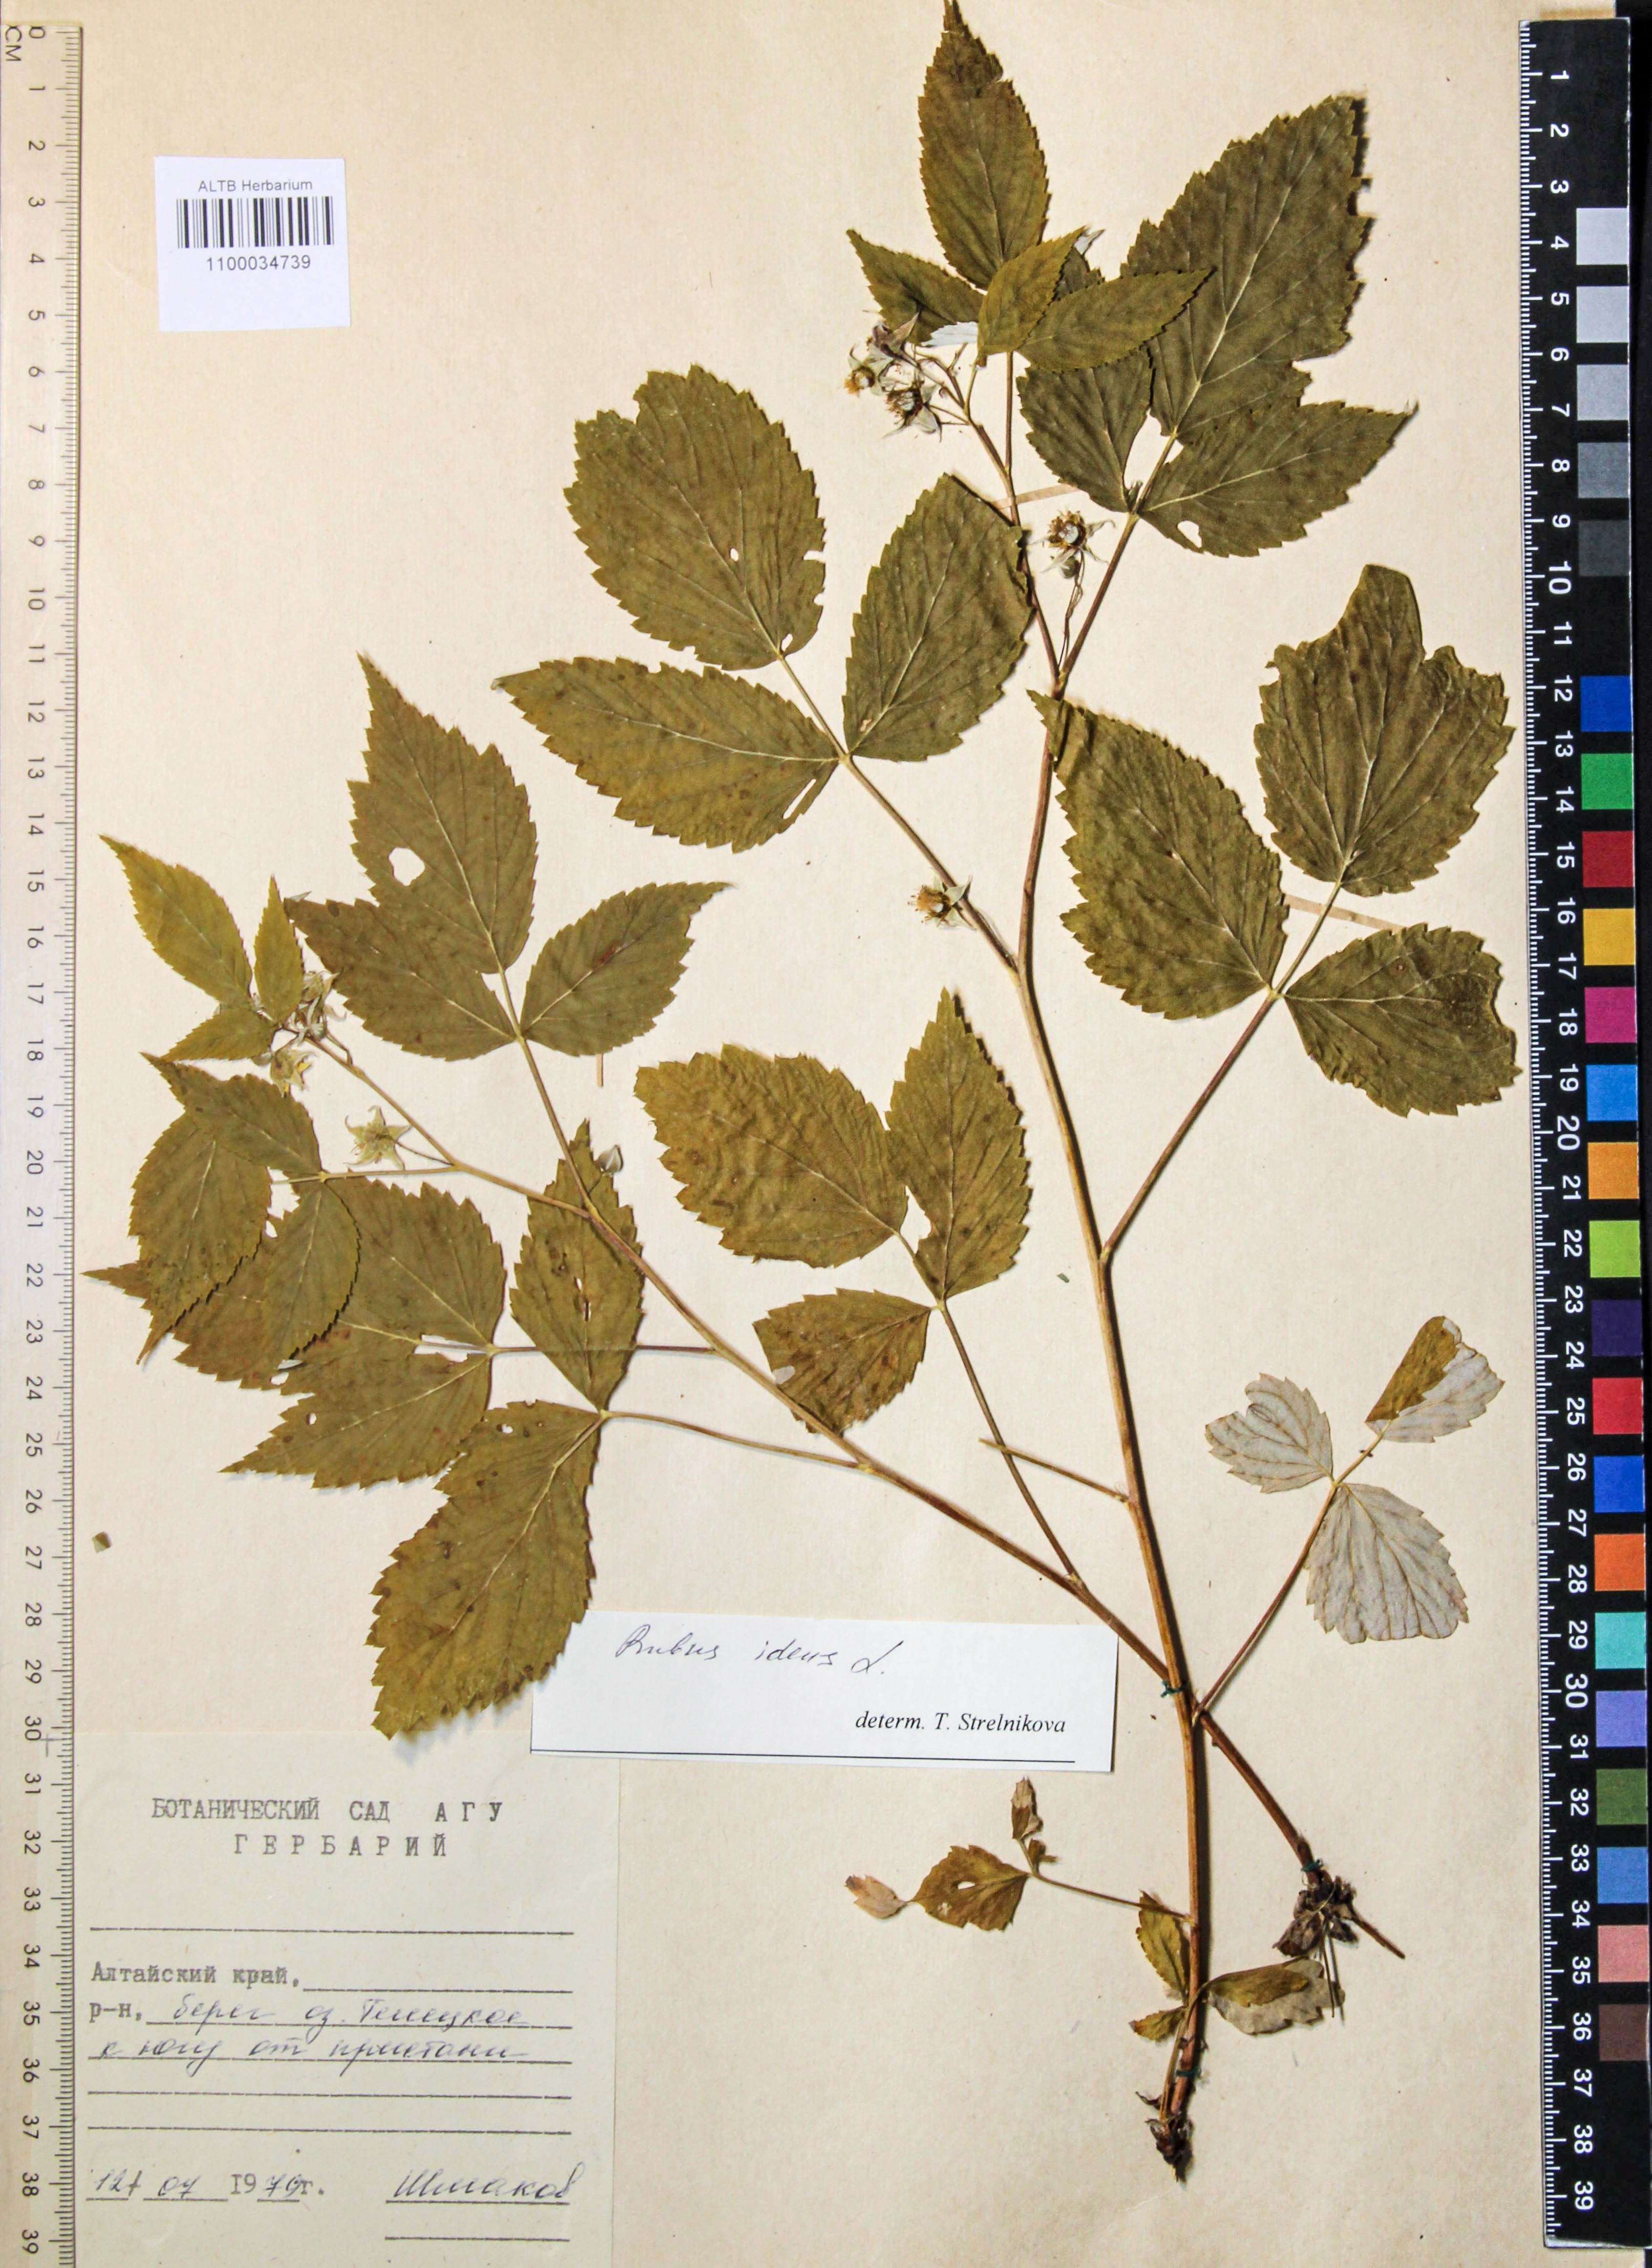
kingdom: Plantae
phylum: Tracheophyta
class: Magnoliopsida
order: Rosales
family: Rosaceae
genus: Rubus
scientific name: Rubus idaeus
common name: Raspberry
